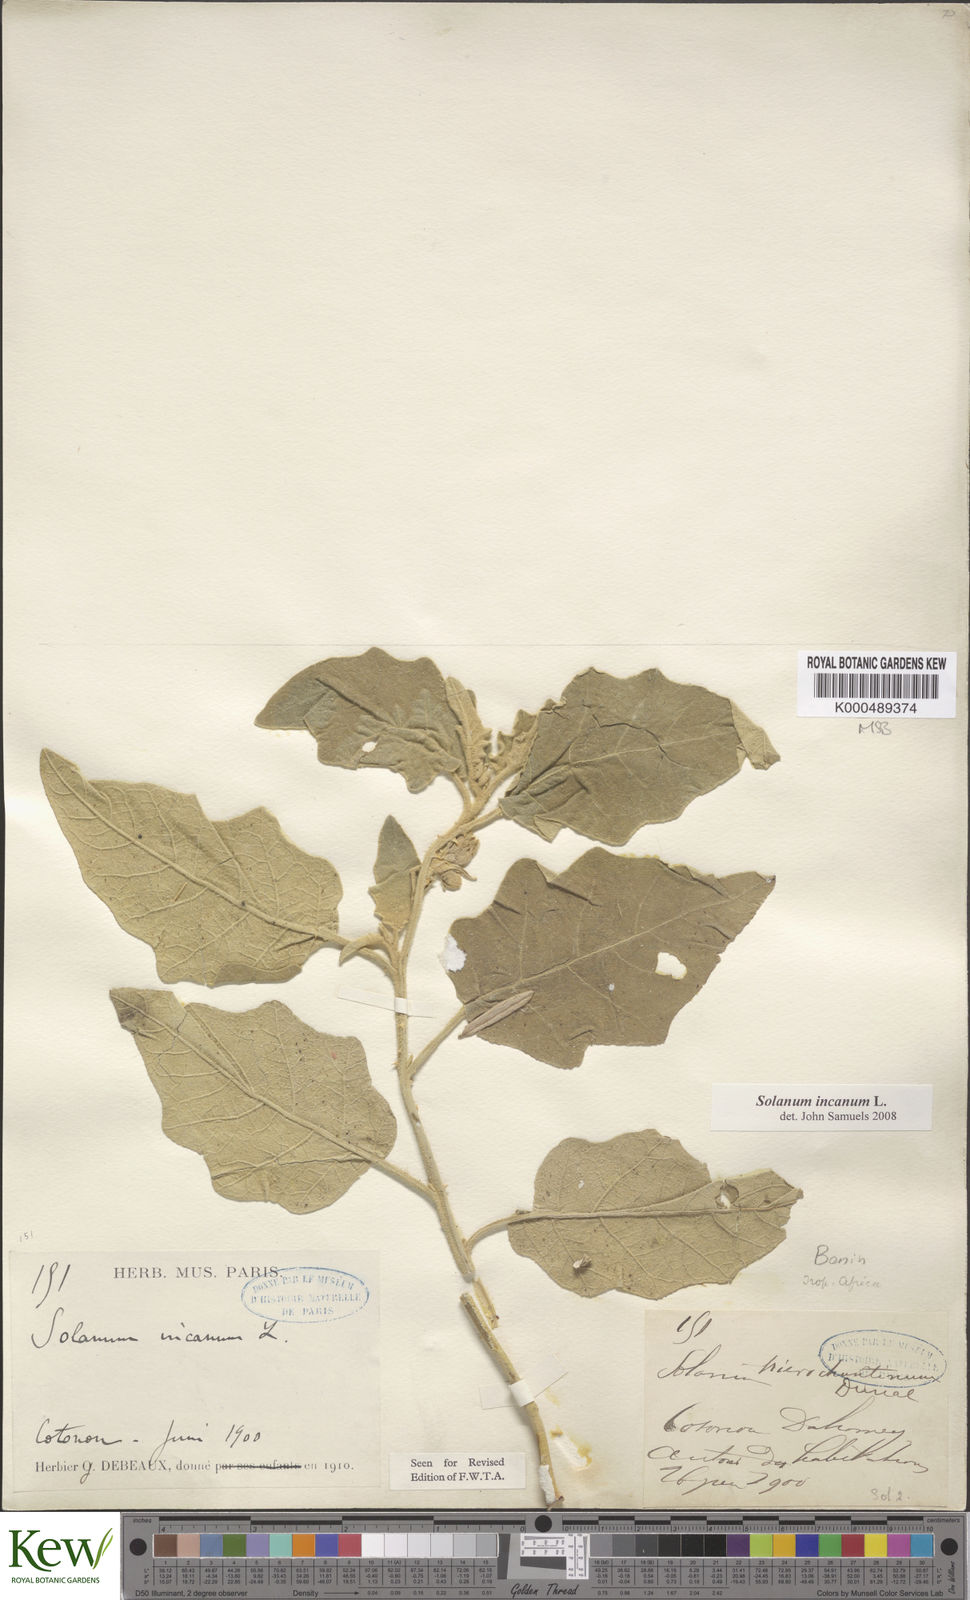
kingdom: Plantae
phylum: Tracheophyta
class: Magnoliopsida
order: Solanales
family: Solanaceae
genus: Solanum
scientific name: Solanum incanum
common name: Bitter apple
